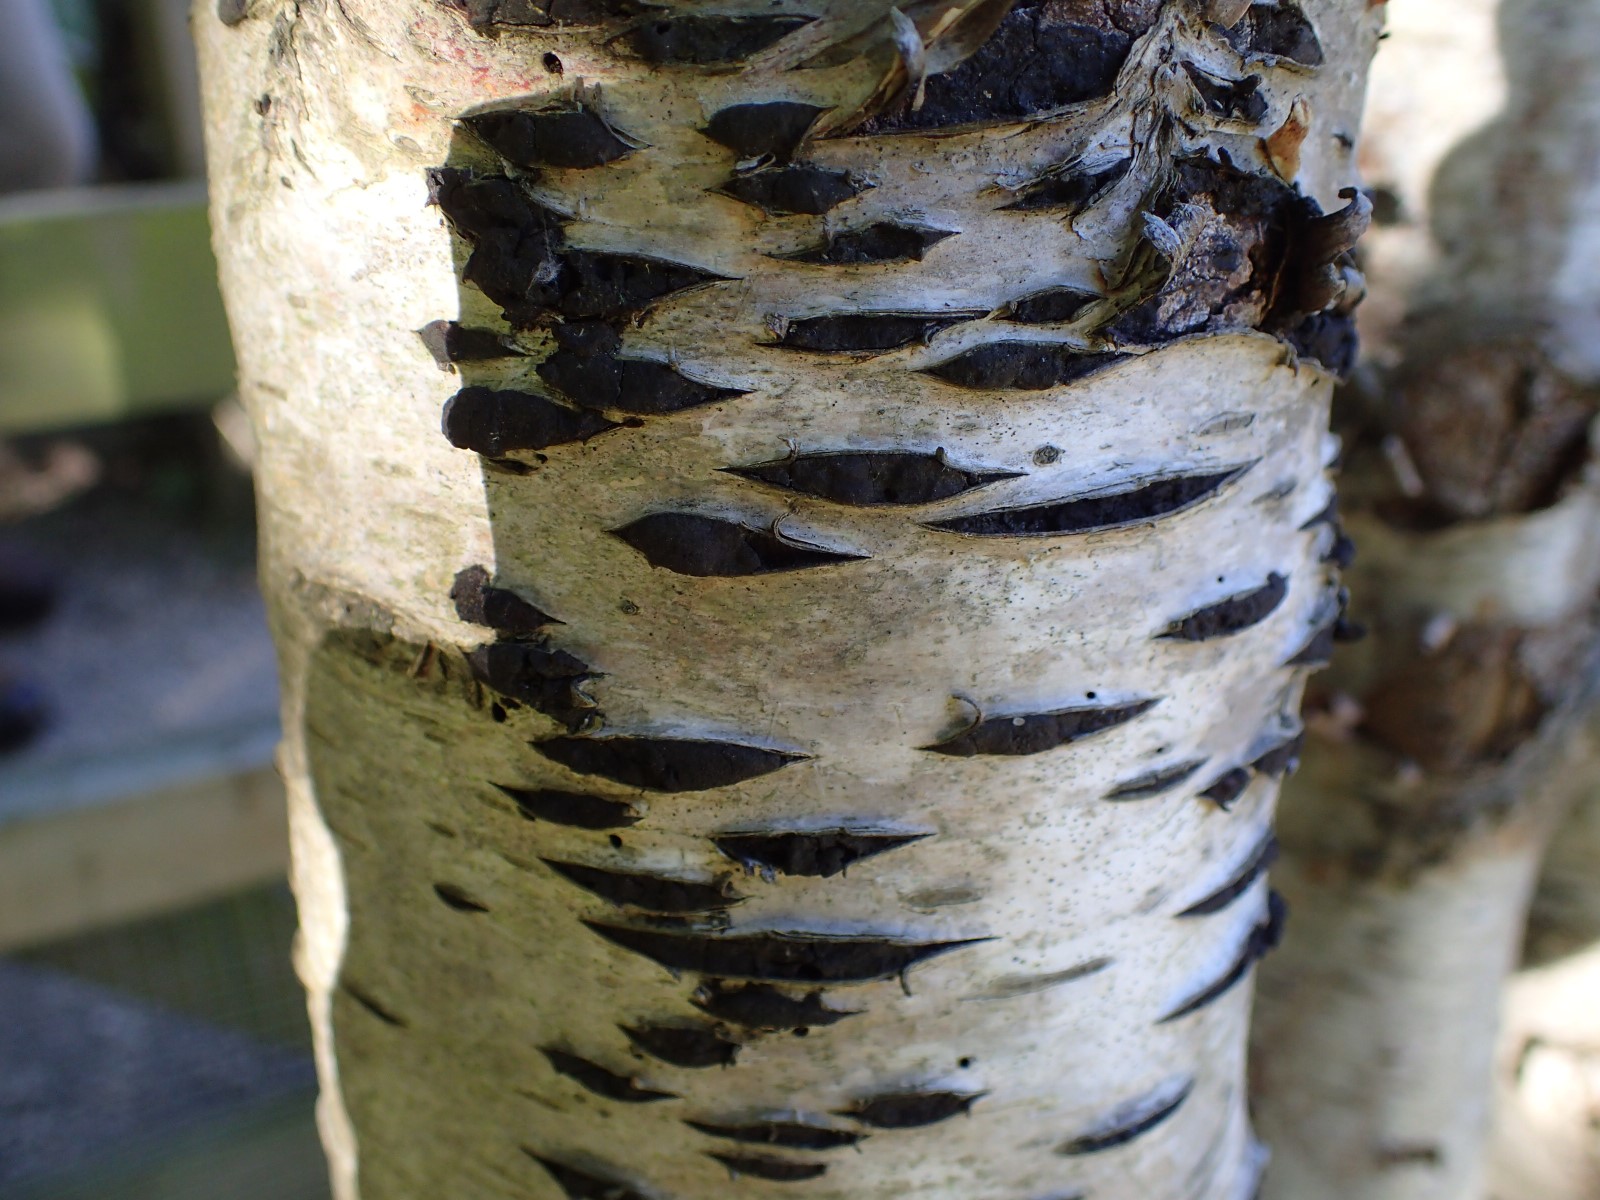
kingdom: Fungi
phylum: Ascomycota
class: Sordariomycetes
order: Xylariales
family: Diatrypaceae
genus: Diatrypella
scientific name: Diatrypella favacea
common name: Birch blackhead
